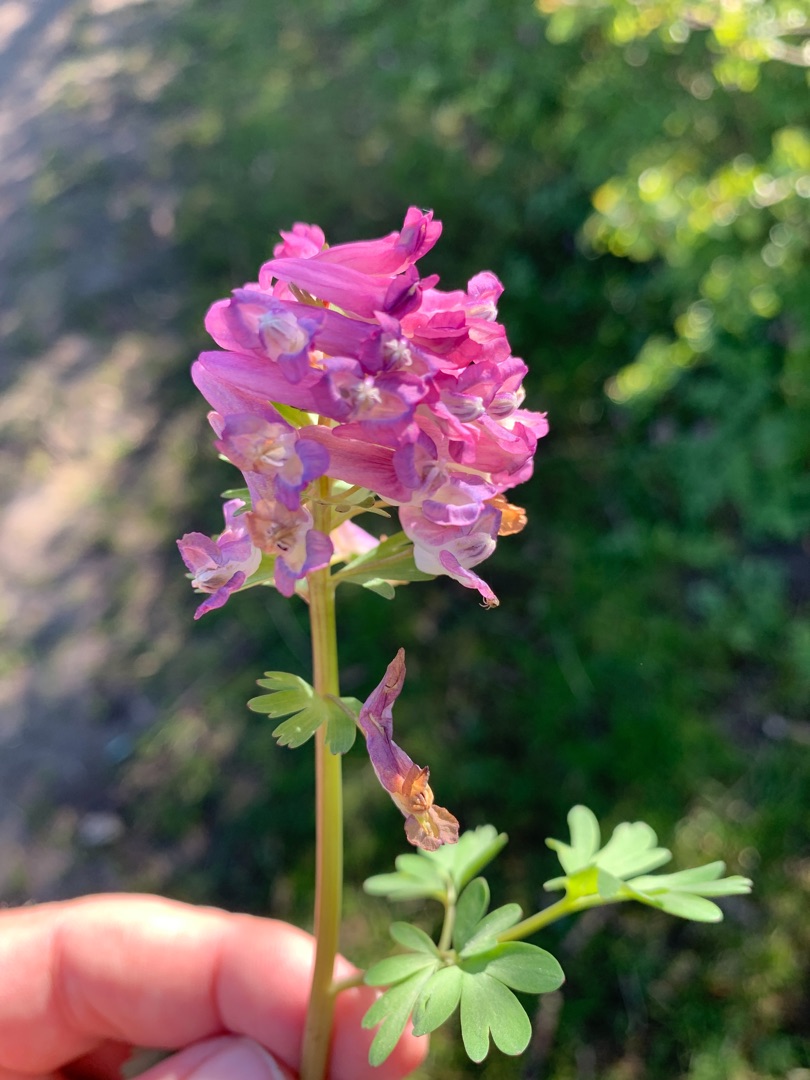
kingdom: Plantae
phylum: Tracheophyta
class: Magnoliopsida
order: Ranunculales
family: Papaveraceae
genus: Corydalis
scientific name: Corydalis solida
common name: Langstilket lærkespore
